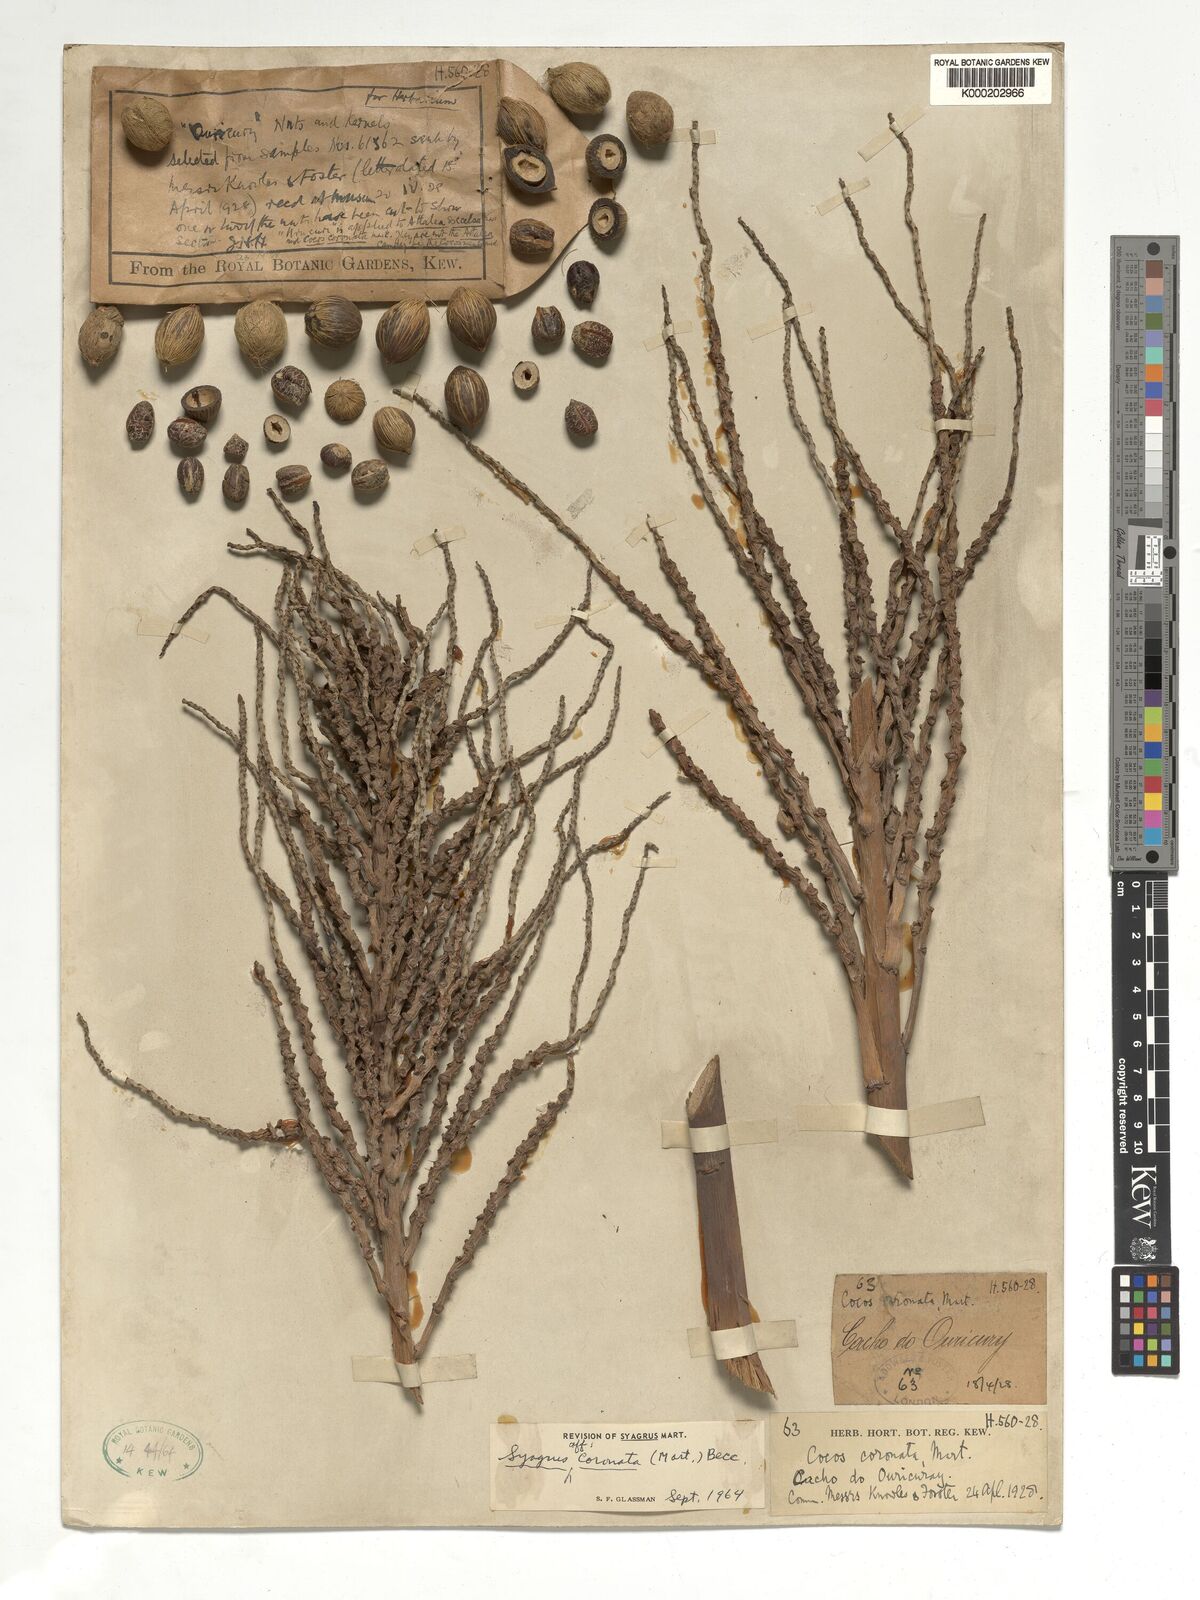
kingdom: Plantae
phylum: Tracheophyta
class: Liliopsida
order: Arecales
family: Arecaceae
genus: Syagrus
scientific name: Syagrus coronata
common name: Licuri palm
